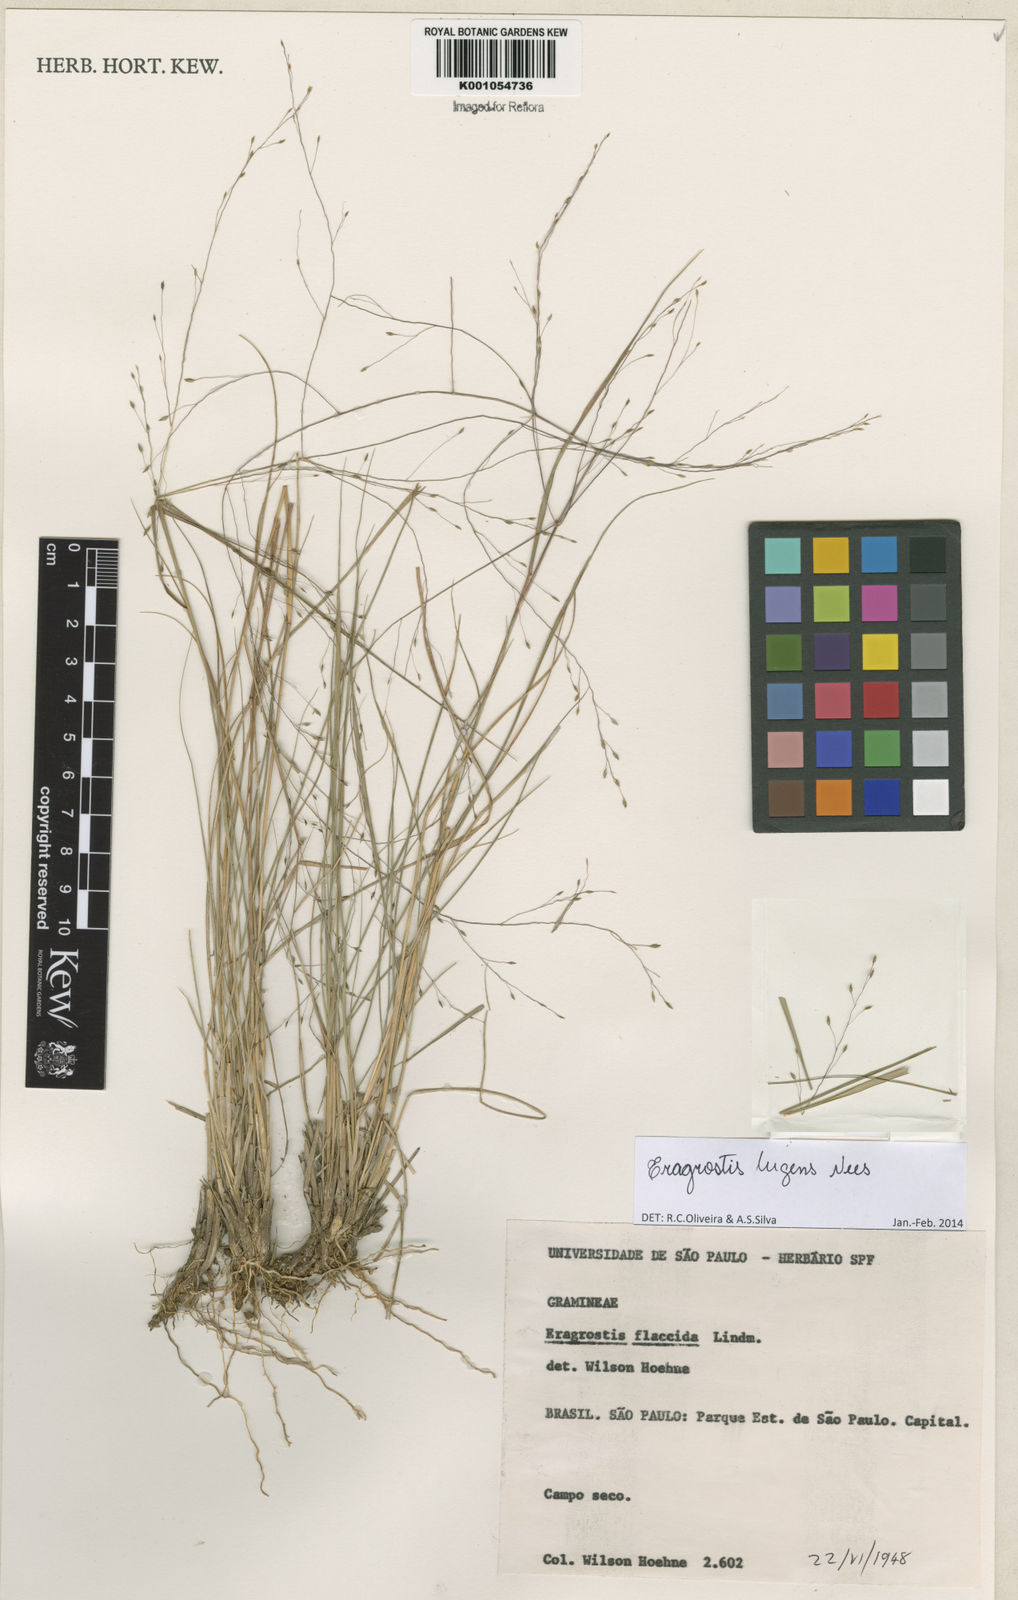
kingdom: Plantae
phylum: Tracheophyta
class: Liliopsida
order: Poales
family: Poaceae
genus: Eragrostis
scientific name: Eragrostis lugens
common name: Mourning love grass
